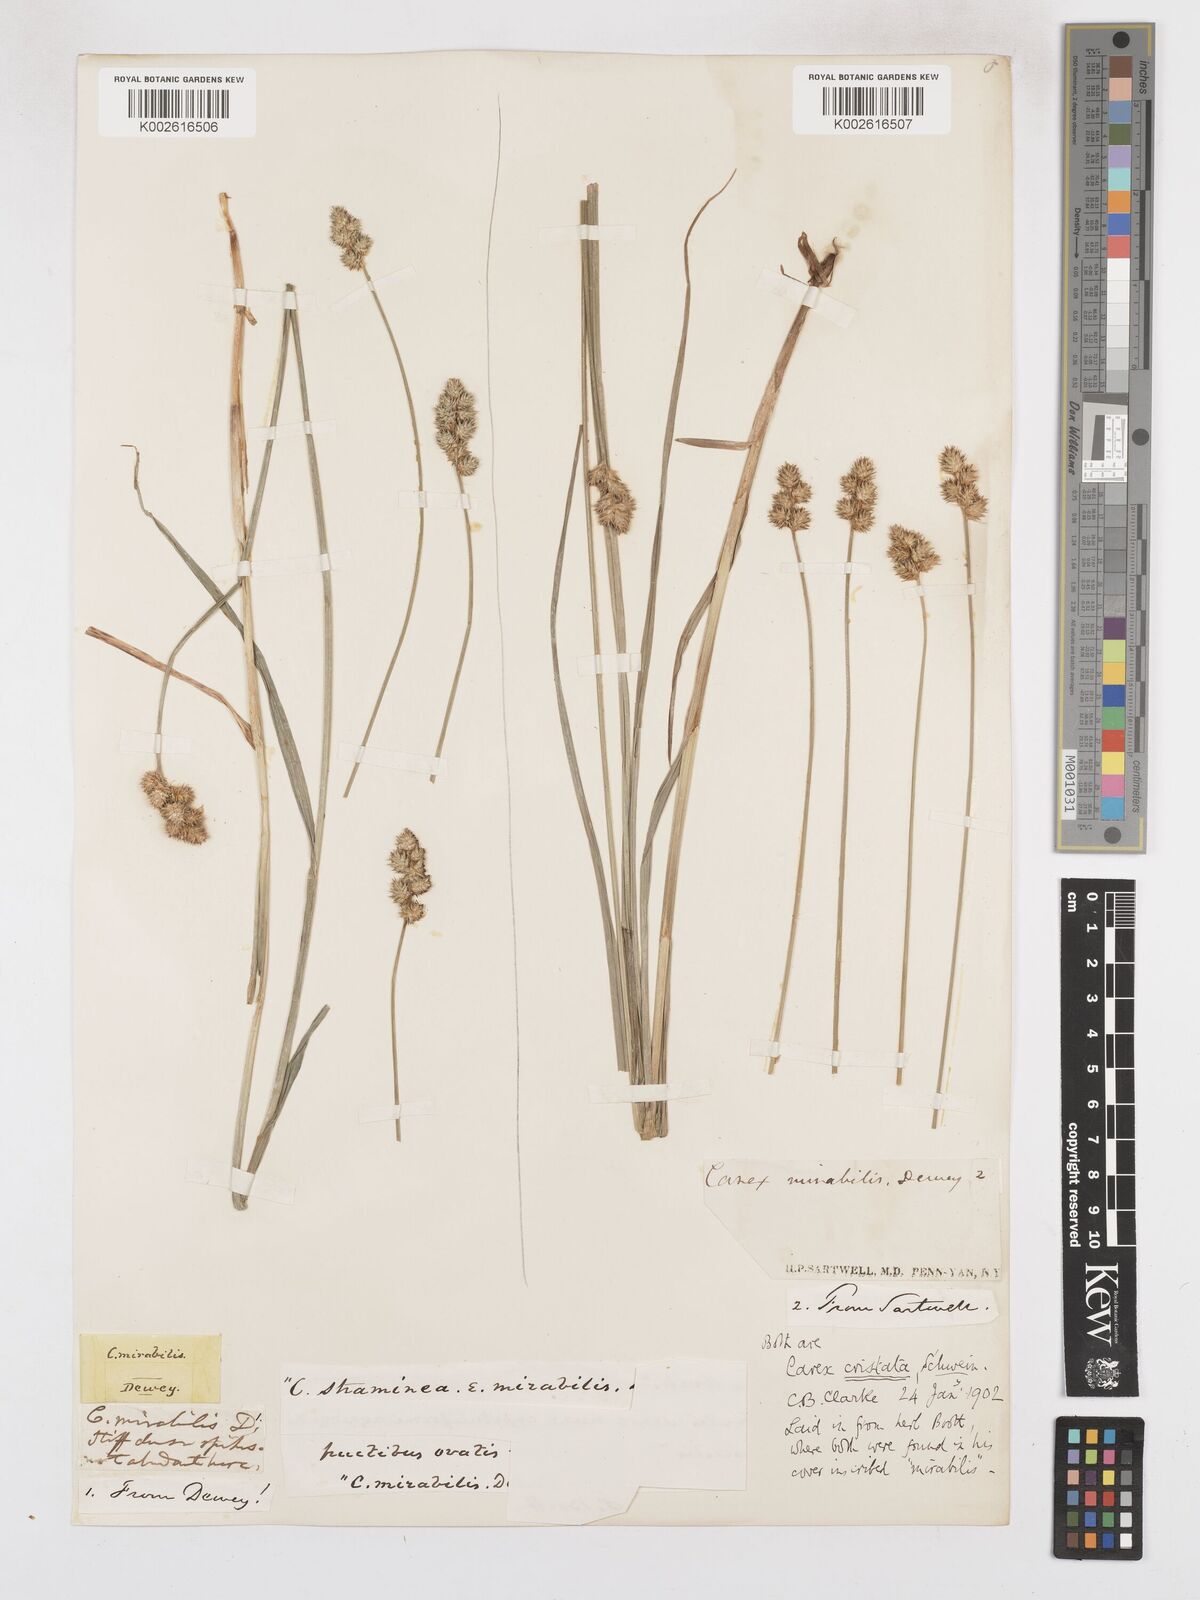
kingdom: Plantae
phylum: Tracheophyta
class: Liliopsida
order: Poales
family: Cyperaceae
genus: Carex
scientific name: Carex cristatella
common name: Crested oval sedge
